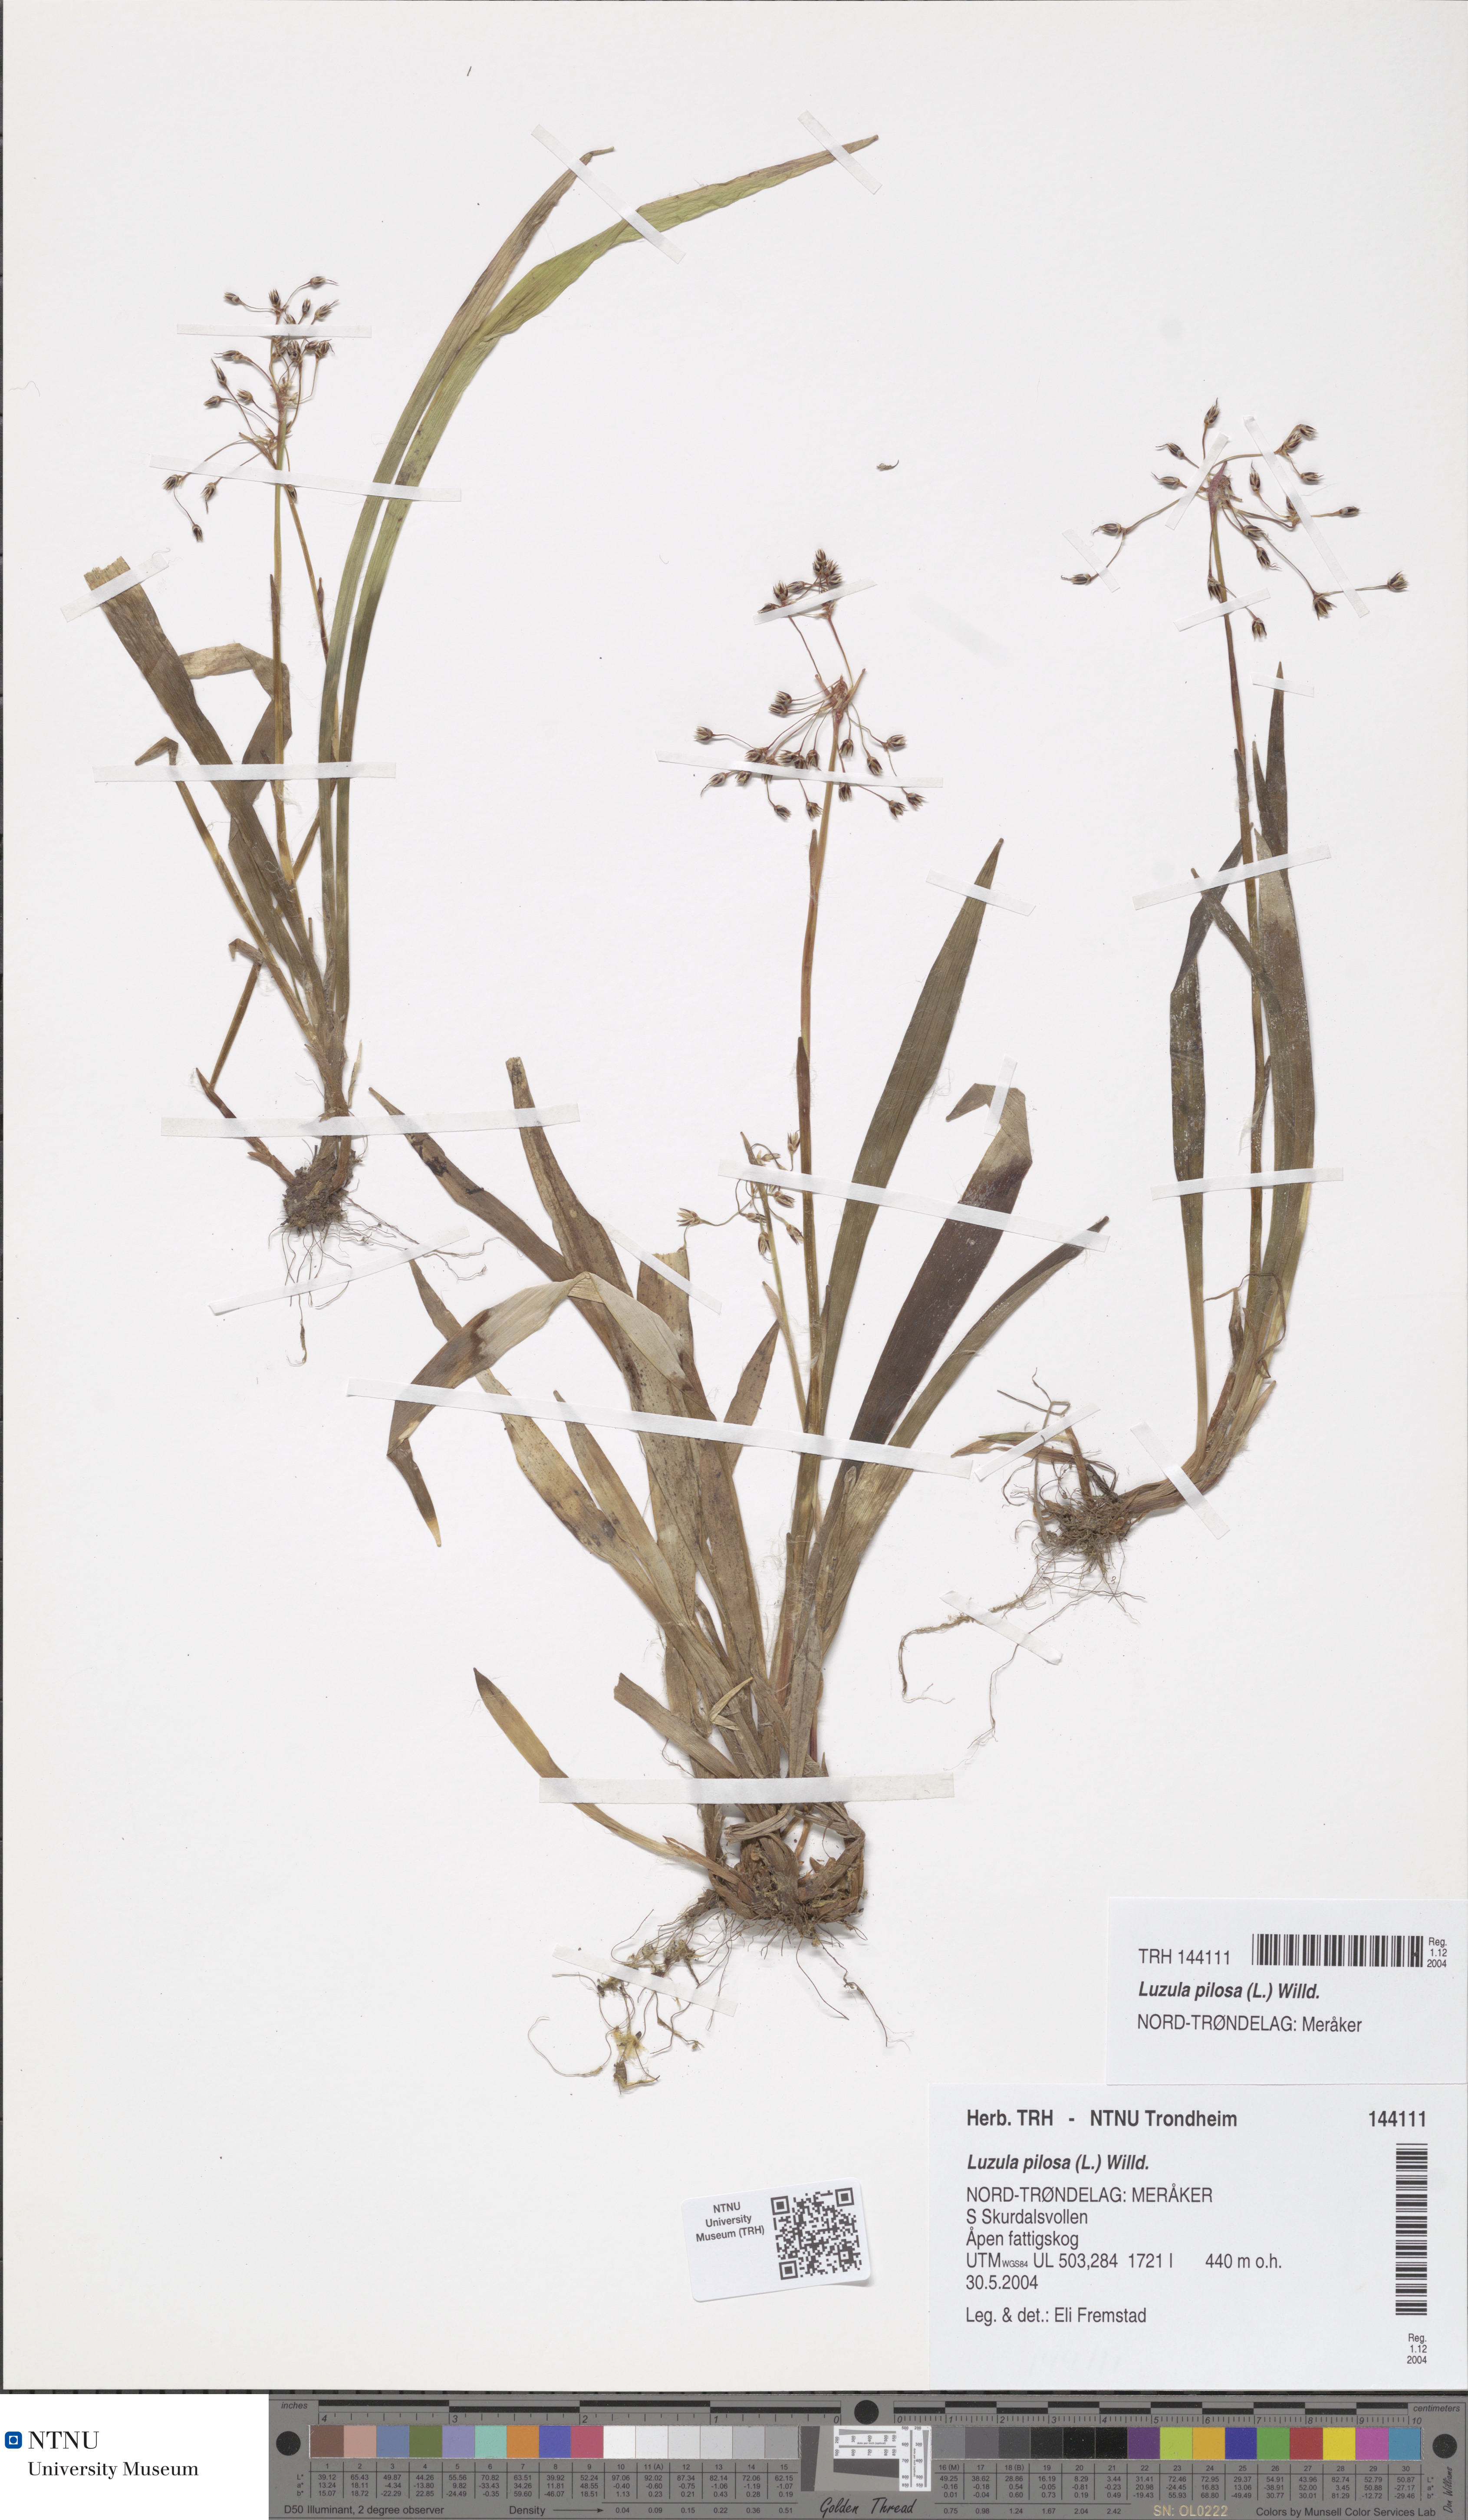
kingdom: Plantae
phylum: Tracheophyta
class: Liliopsida
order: Poales
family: Juncaceae
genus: Luzula
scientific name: Luzula pilosa
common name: Hairy wood-rush
